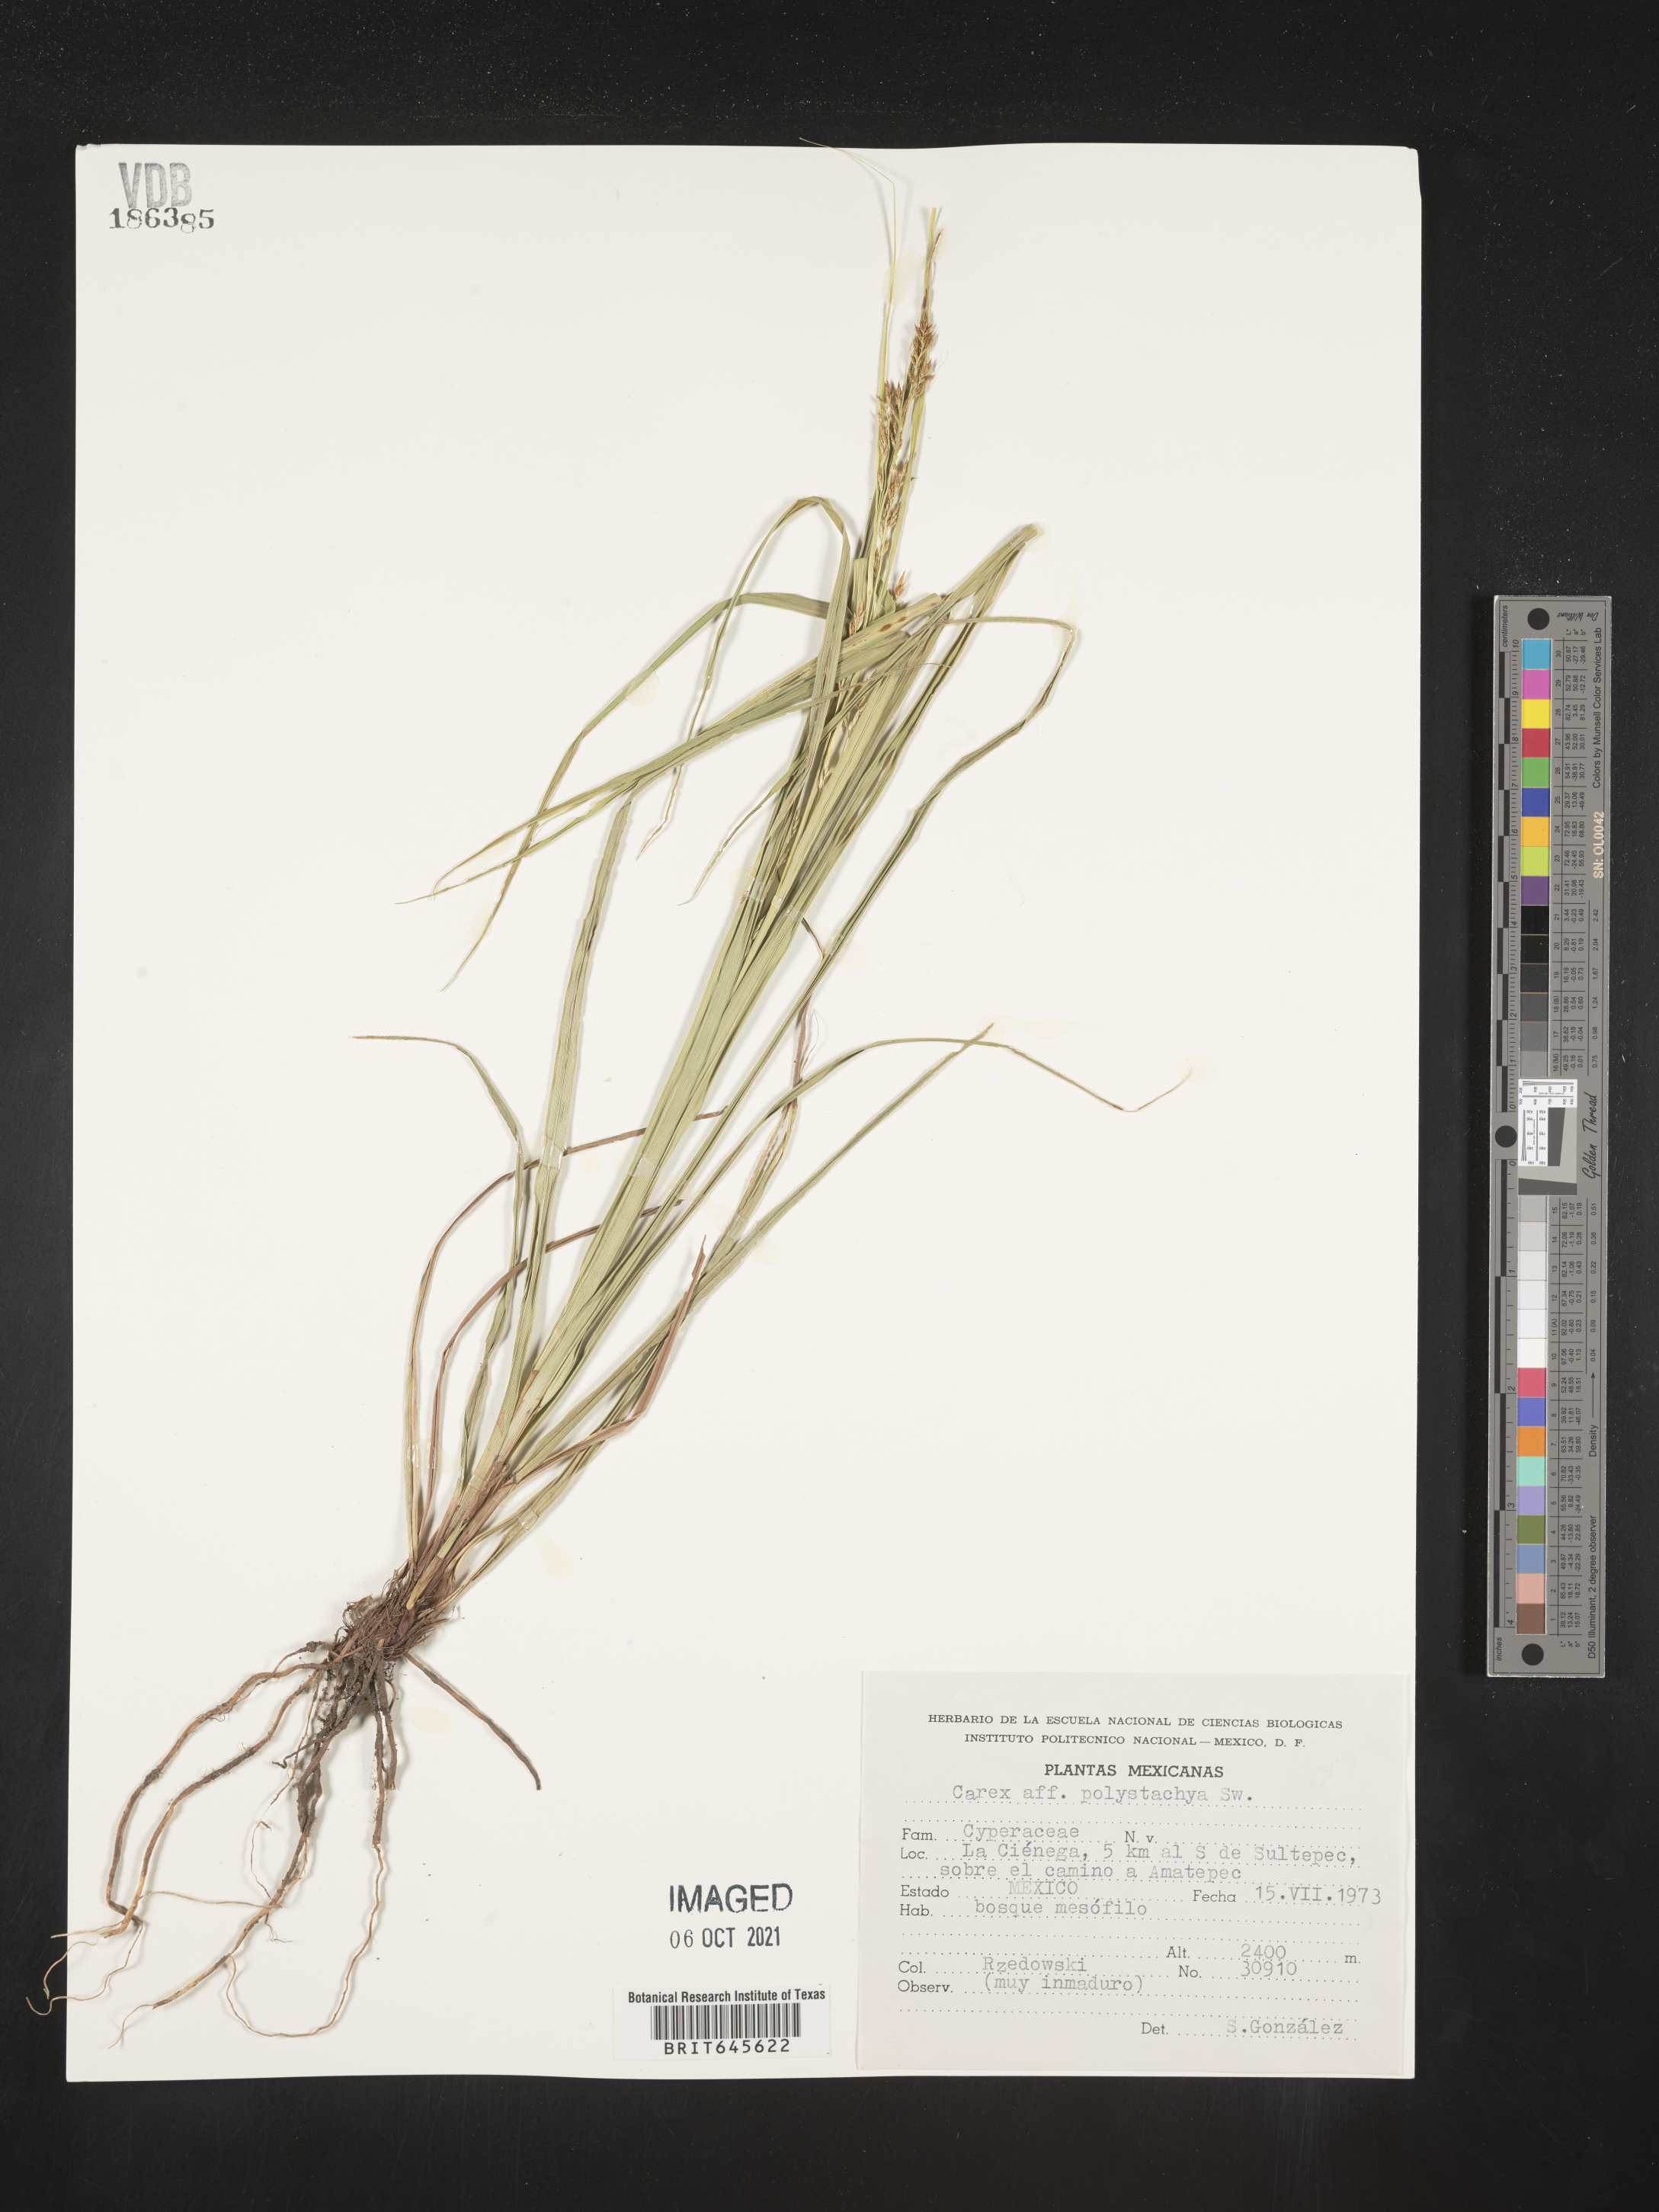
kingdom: Plantae
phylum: Tracheophyta
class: Liliopsida
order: Poales
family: Cyperaceae
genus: Carex
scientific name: Carex
